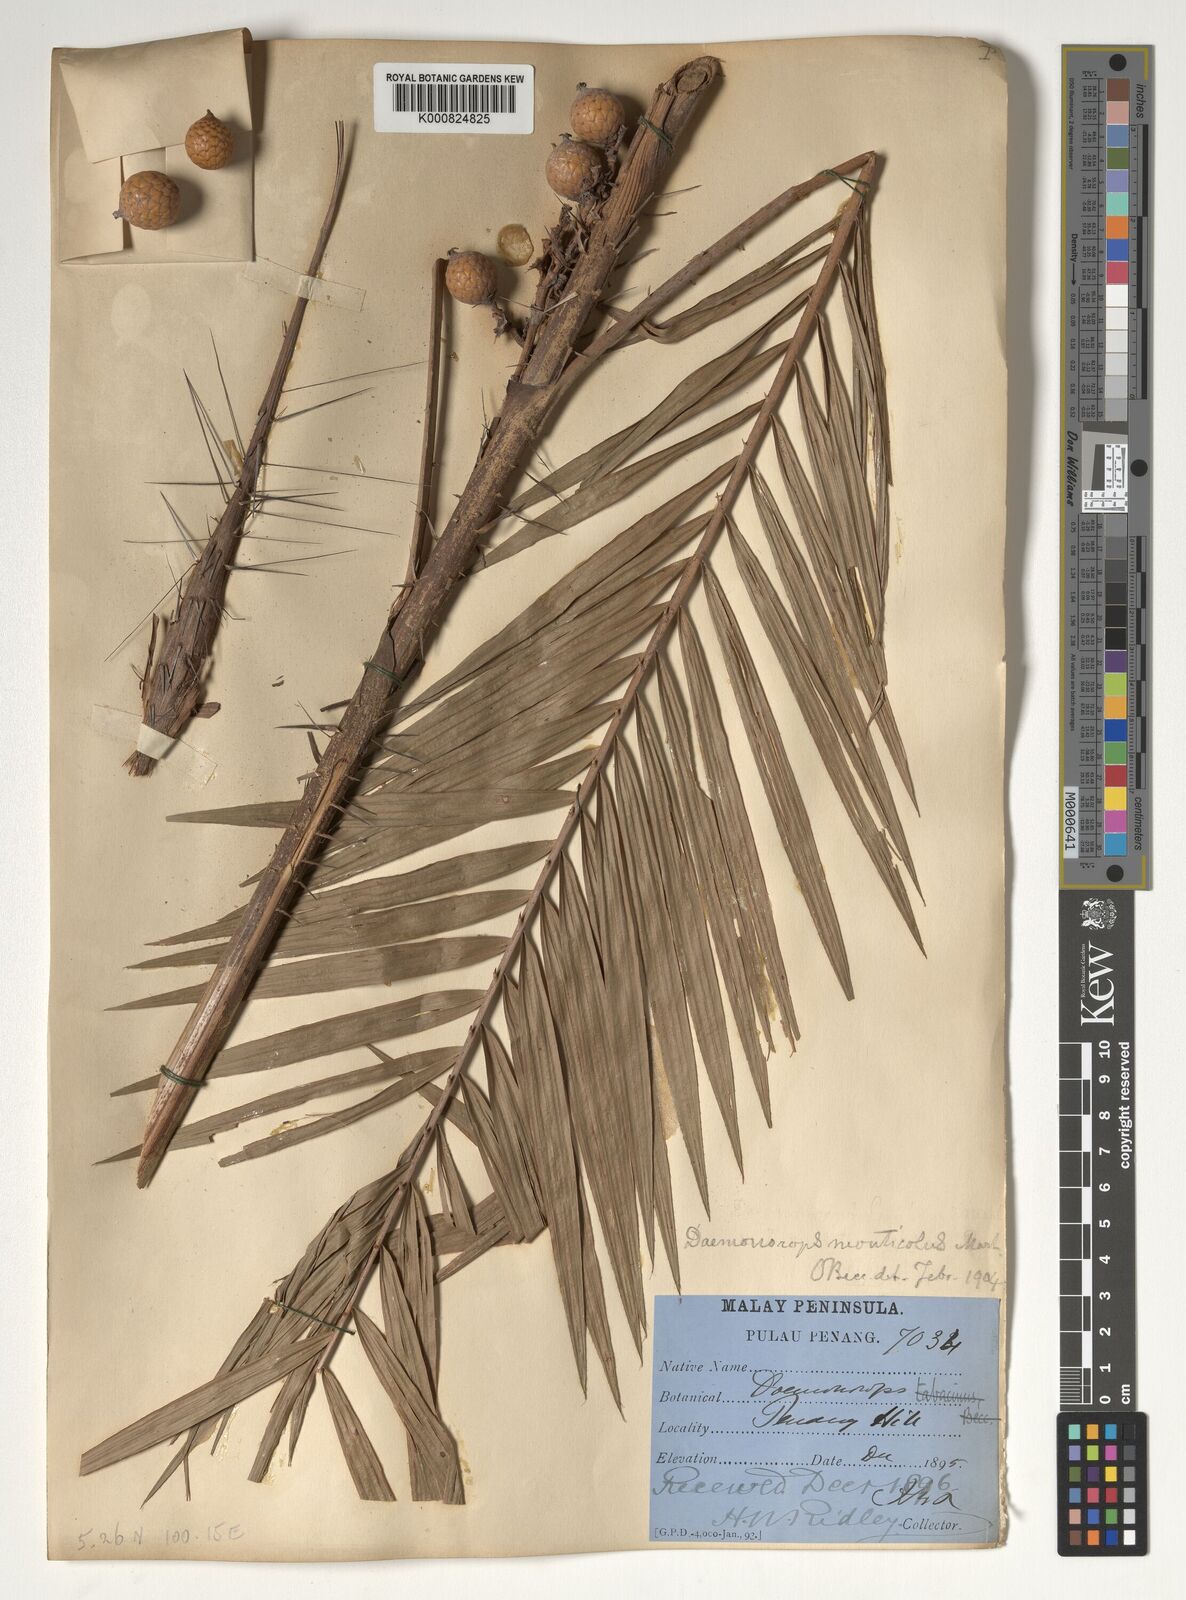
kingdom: Plantae
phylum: Tracheophyta
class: Liliopsida
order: Arecales
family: Arecaceae
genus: Calamus
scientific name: Calamus melanochaetes
